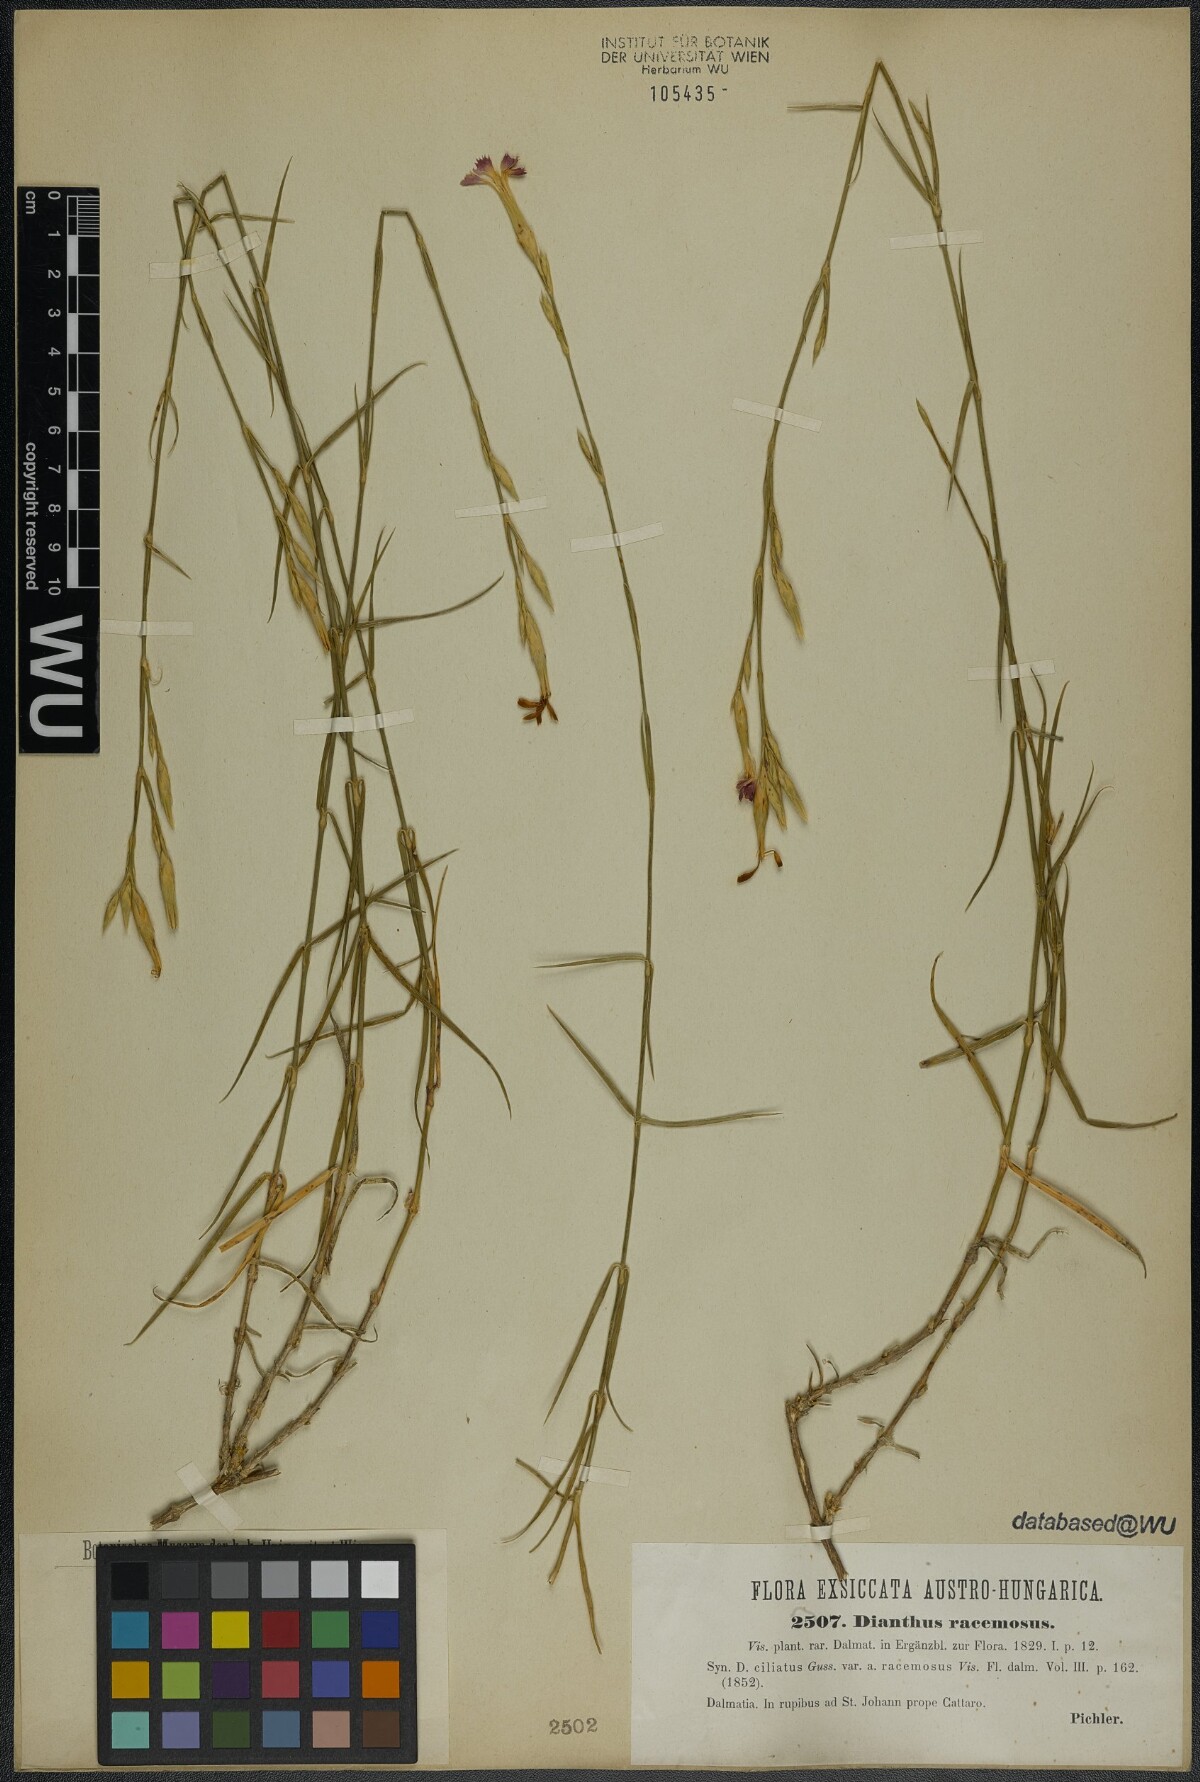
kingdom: Plantae
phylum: Tracheophyta
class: Magnoliopsida
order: Caryophyllales
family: Caryophyllaceae
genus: Dianthus
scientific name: Dianthus ciliatus
